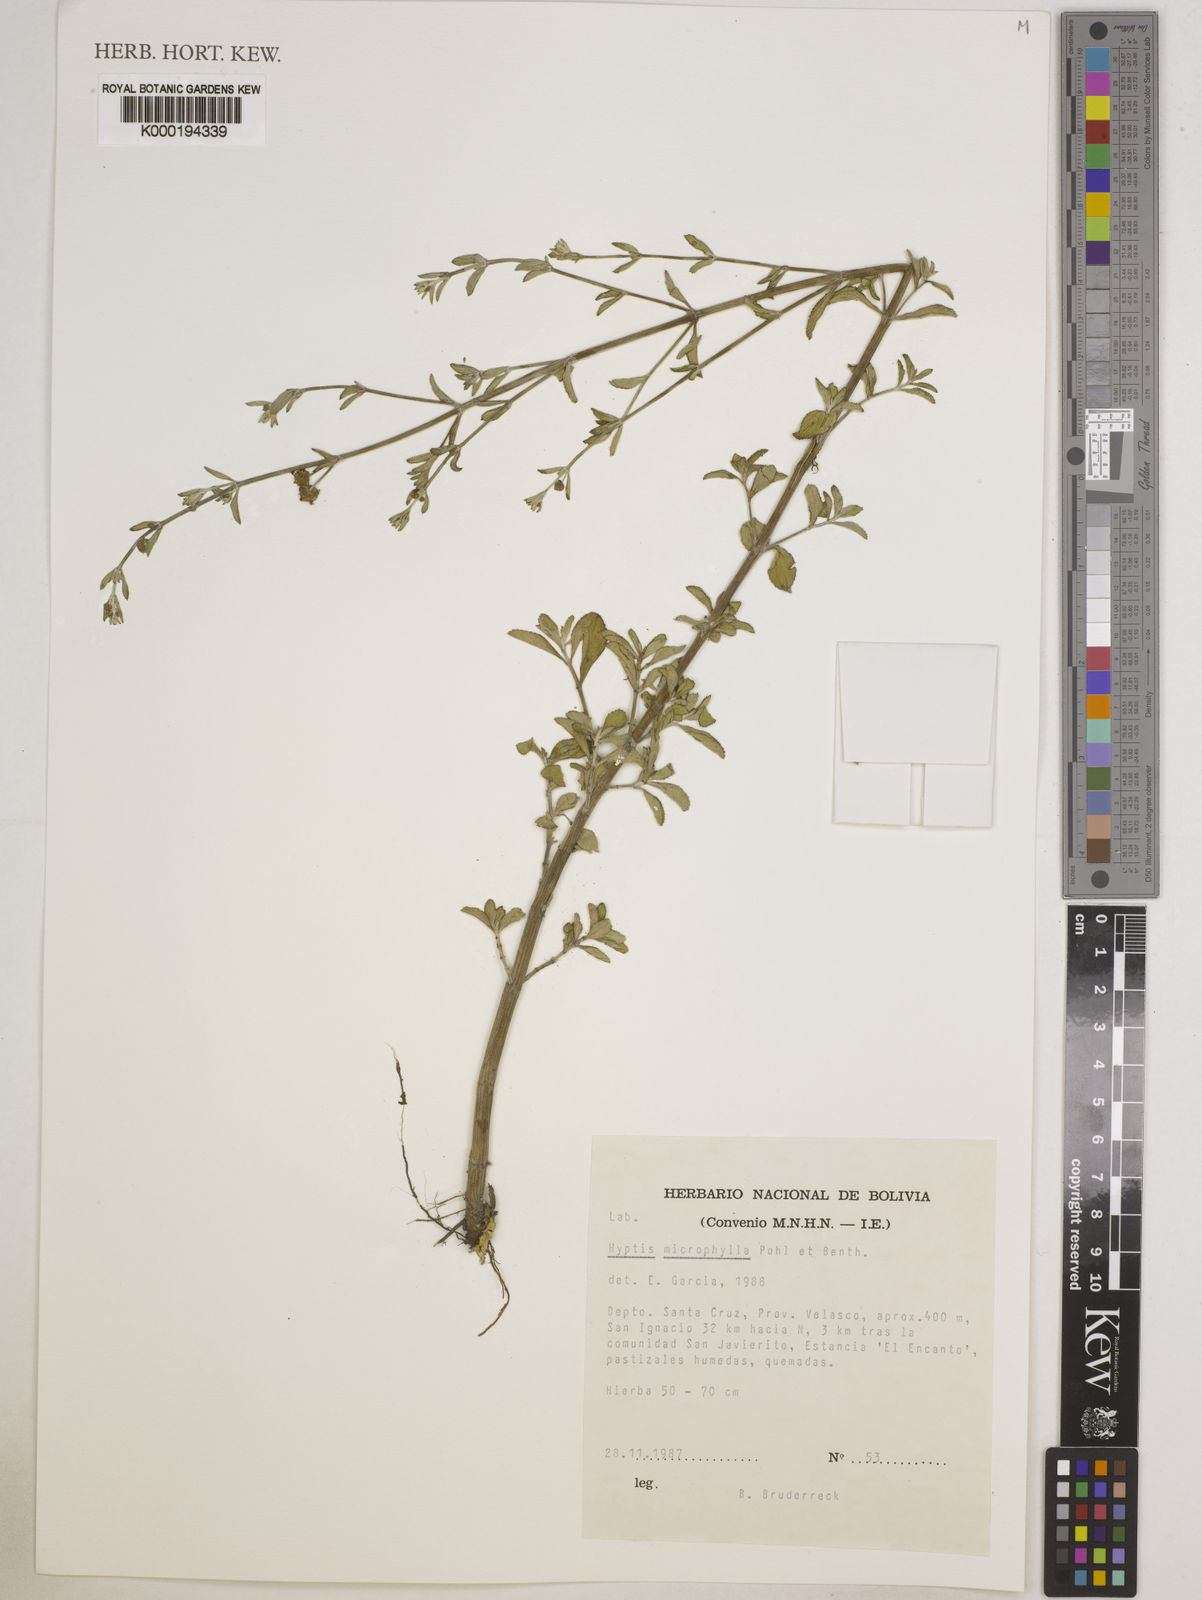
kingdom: Plantae
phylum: Tracheophyta
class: Magnoliopsida
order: Lamiales
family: Lamiaceae
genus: Hyptis
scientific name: Hyptis microphylla
